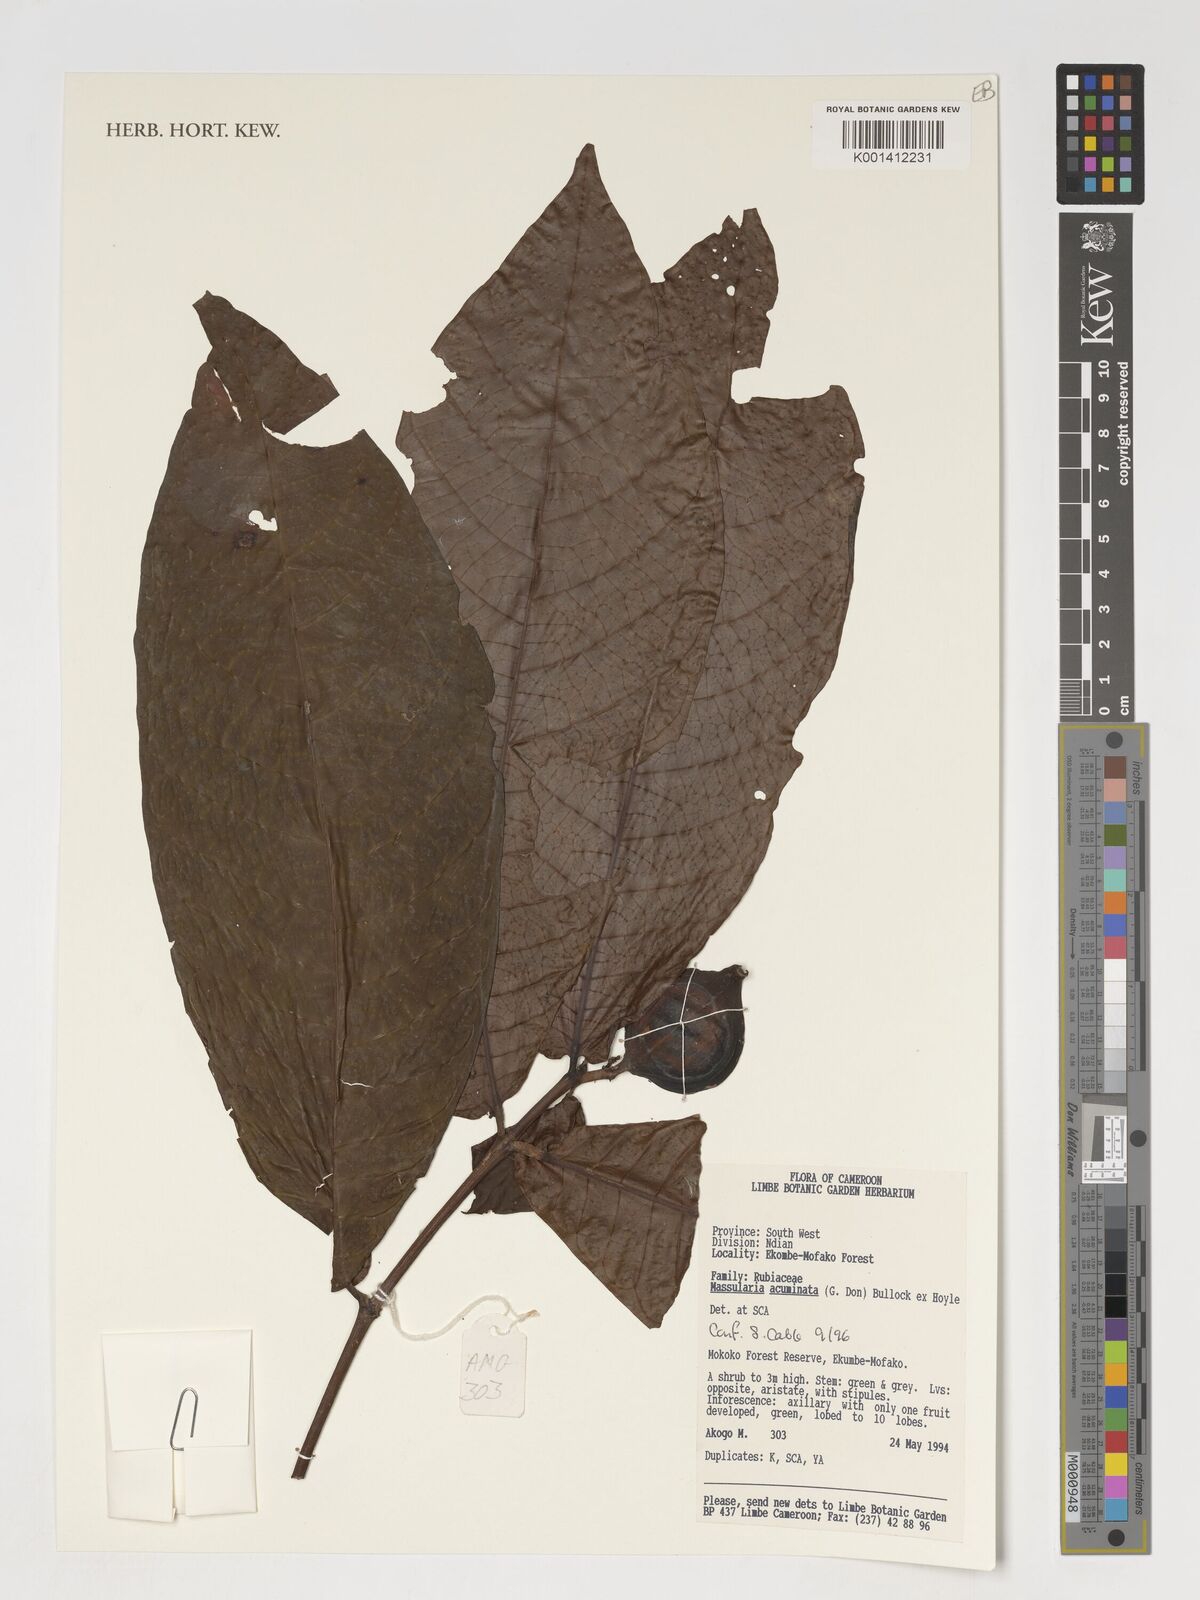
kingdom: Plantae
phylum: Tracheophyta
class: Magnoliopsida
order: Gentianales
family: Rubiaceae
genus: Massularia
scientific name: Massularia acuminata
